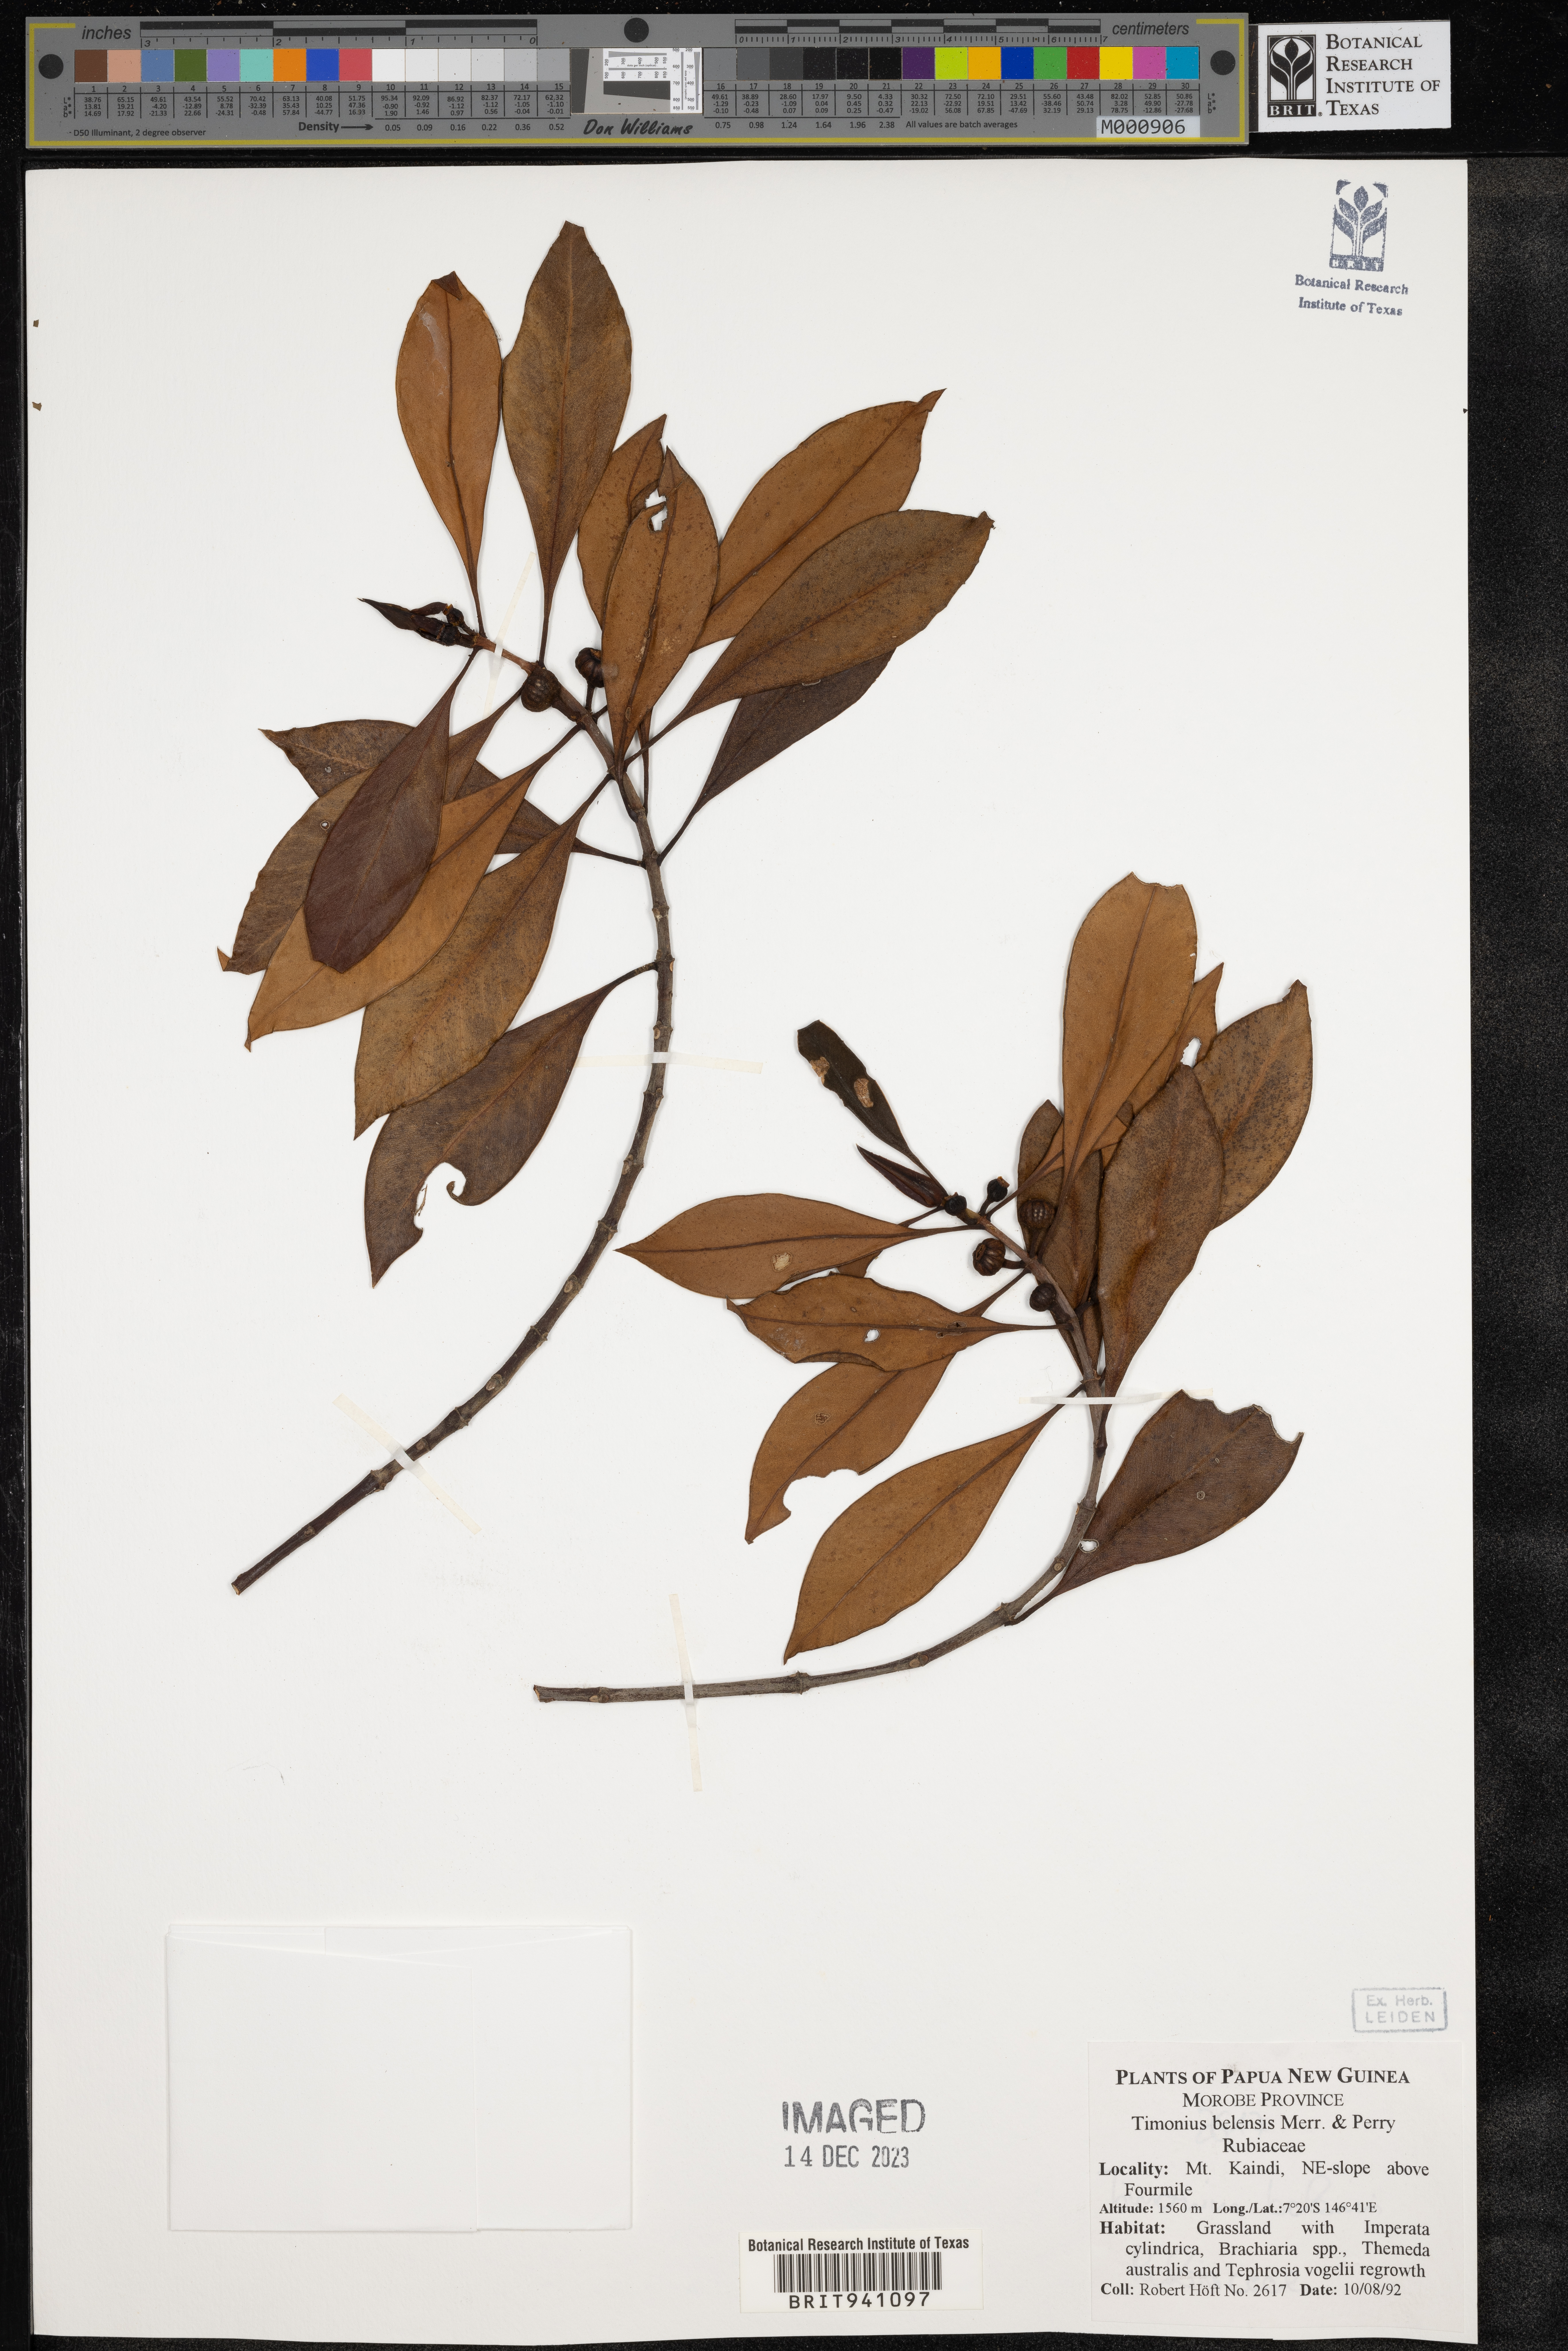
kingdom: Plantae
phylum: Tracheophyta
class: Magnoliopsida
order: Gentianales
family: Rubiaceae
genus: Timonius
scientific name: Timonius
